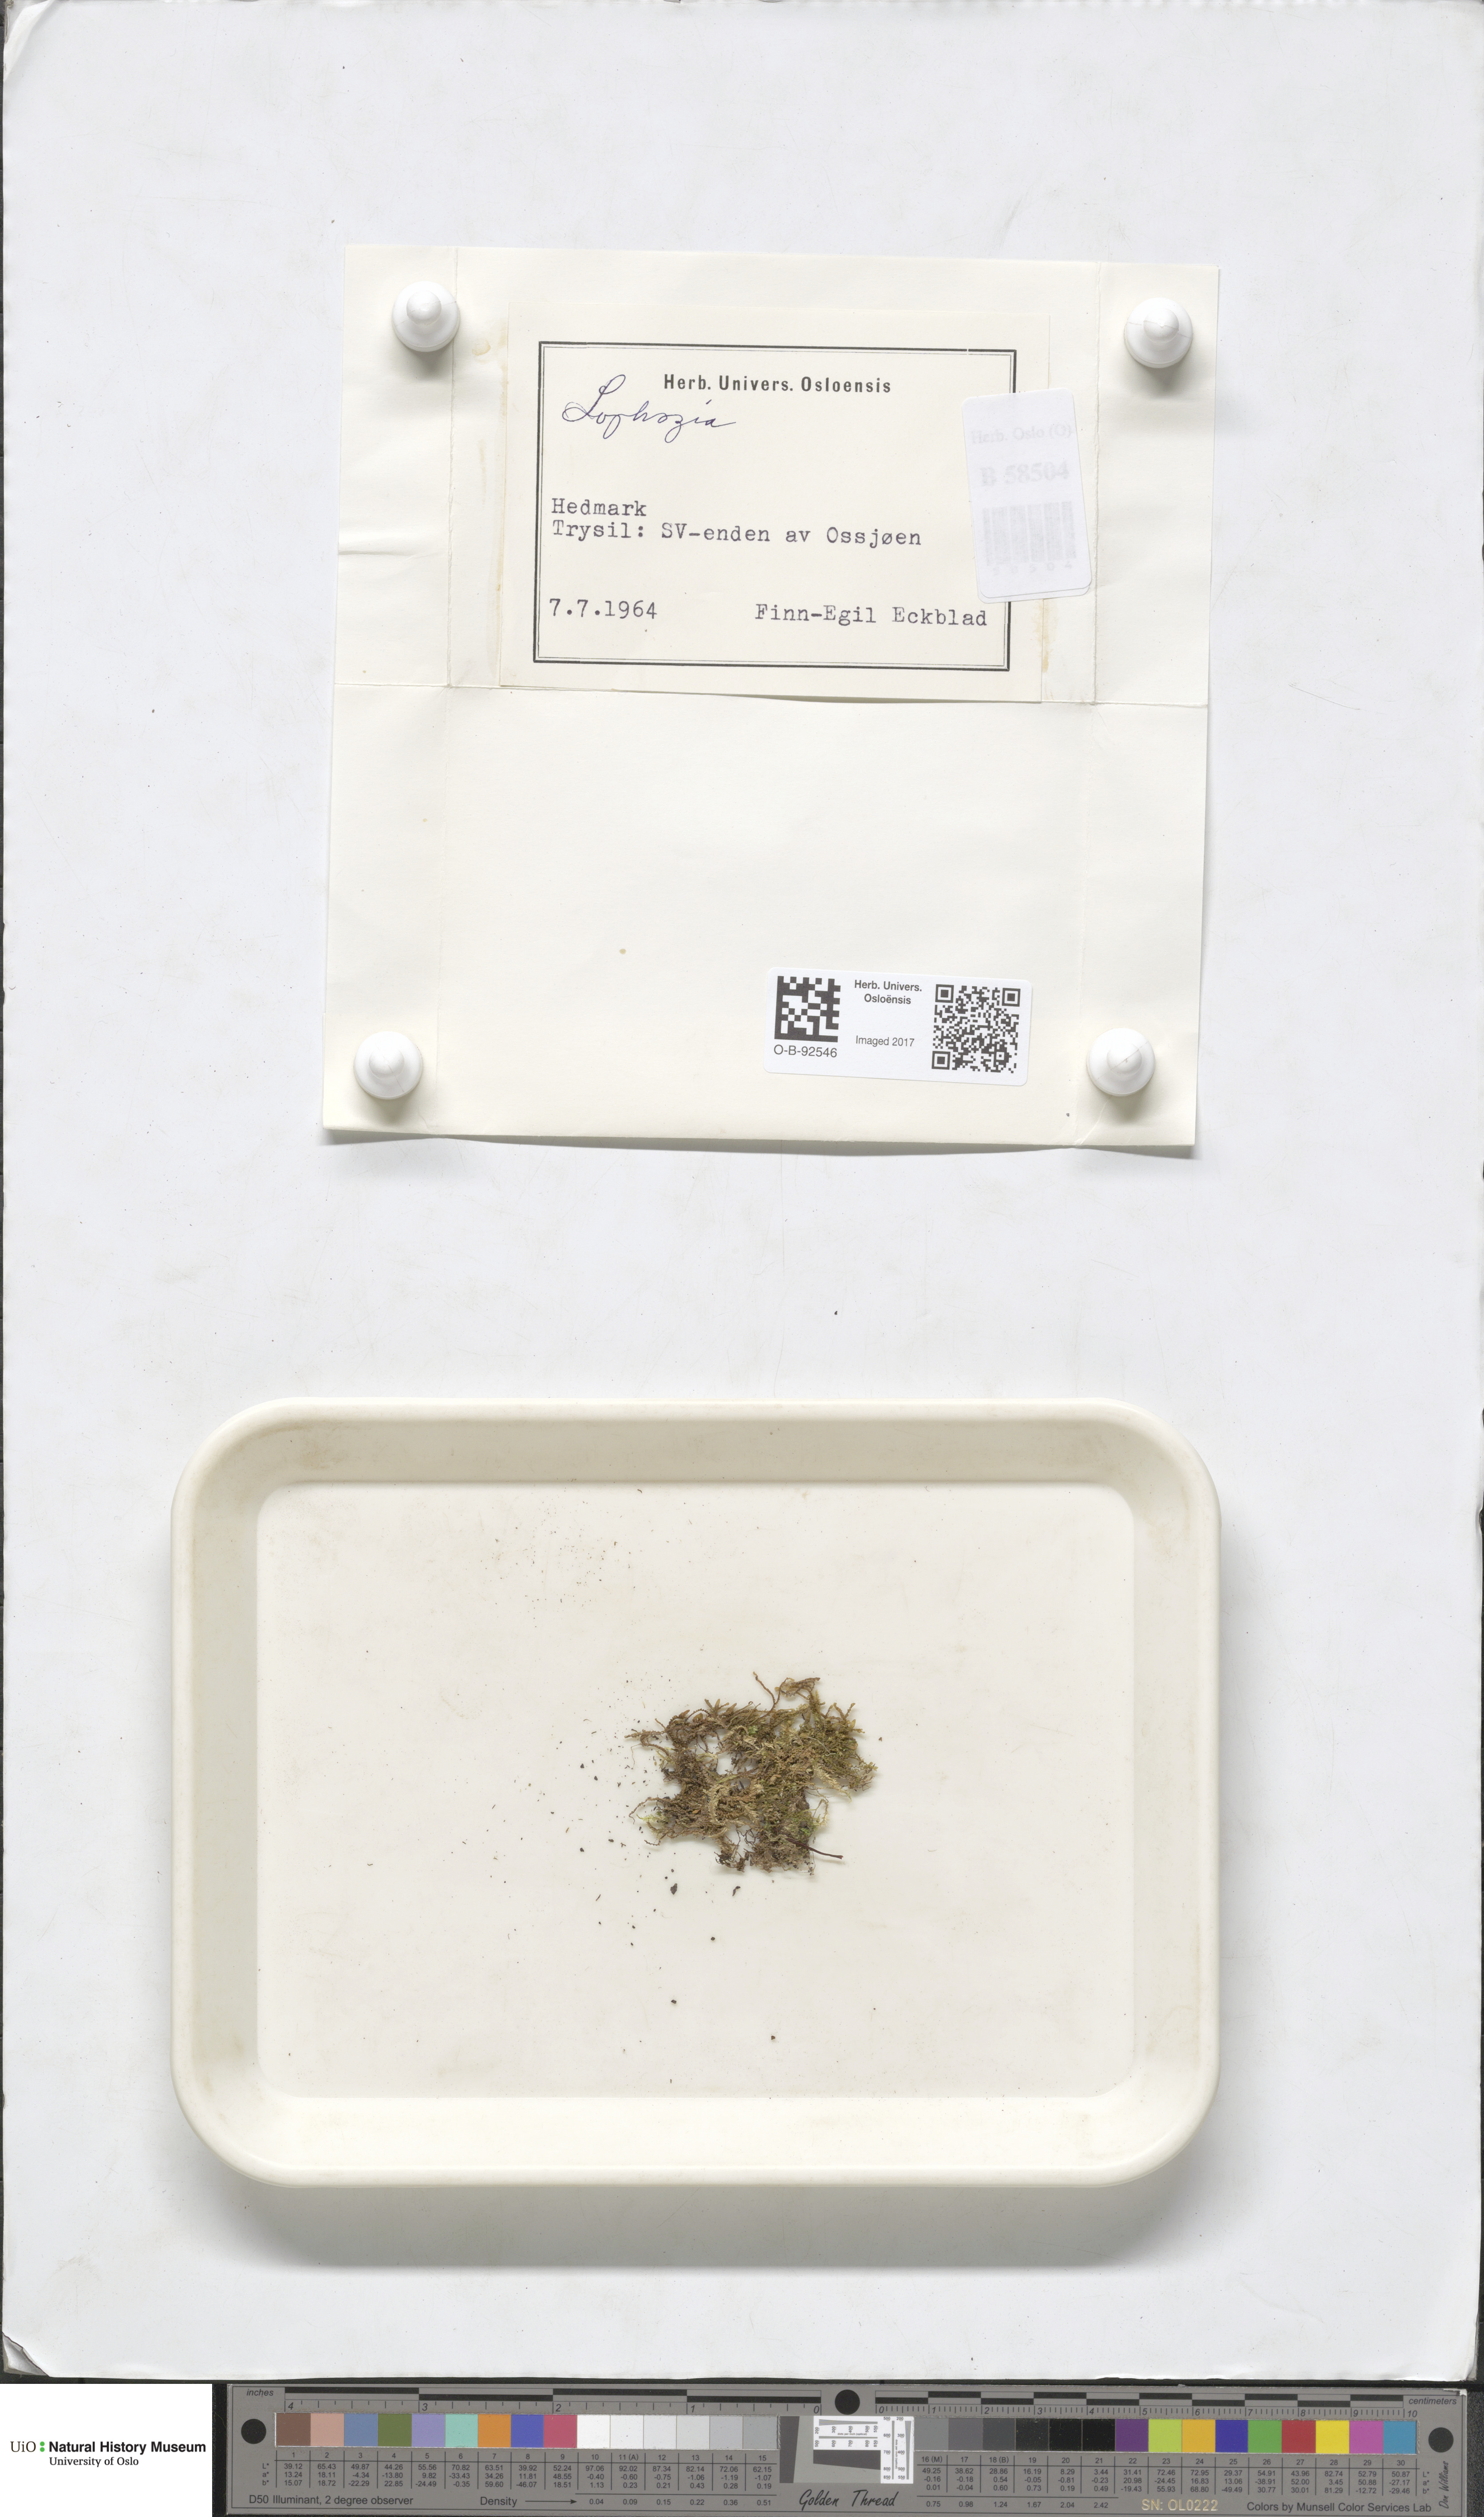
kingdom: Plantae
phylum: Marchantiophyta
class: Jungermanniopsida
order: Jungermanniales
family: Lophoziaceae
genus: Lophozia
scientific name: Lophozia
